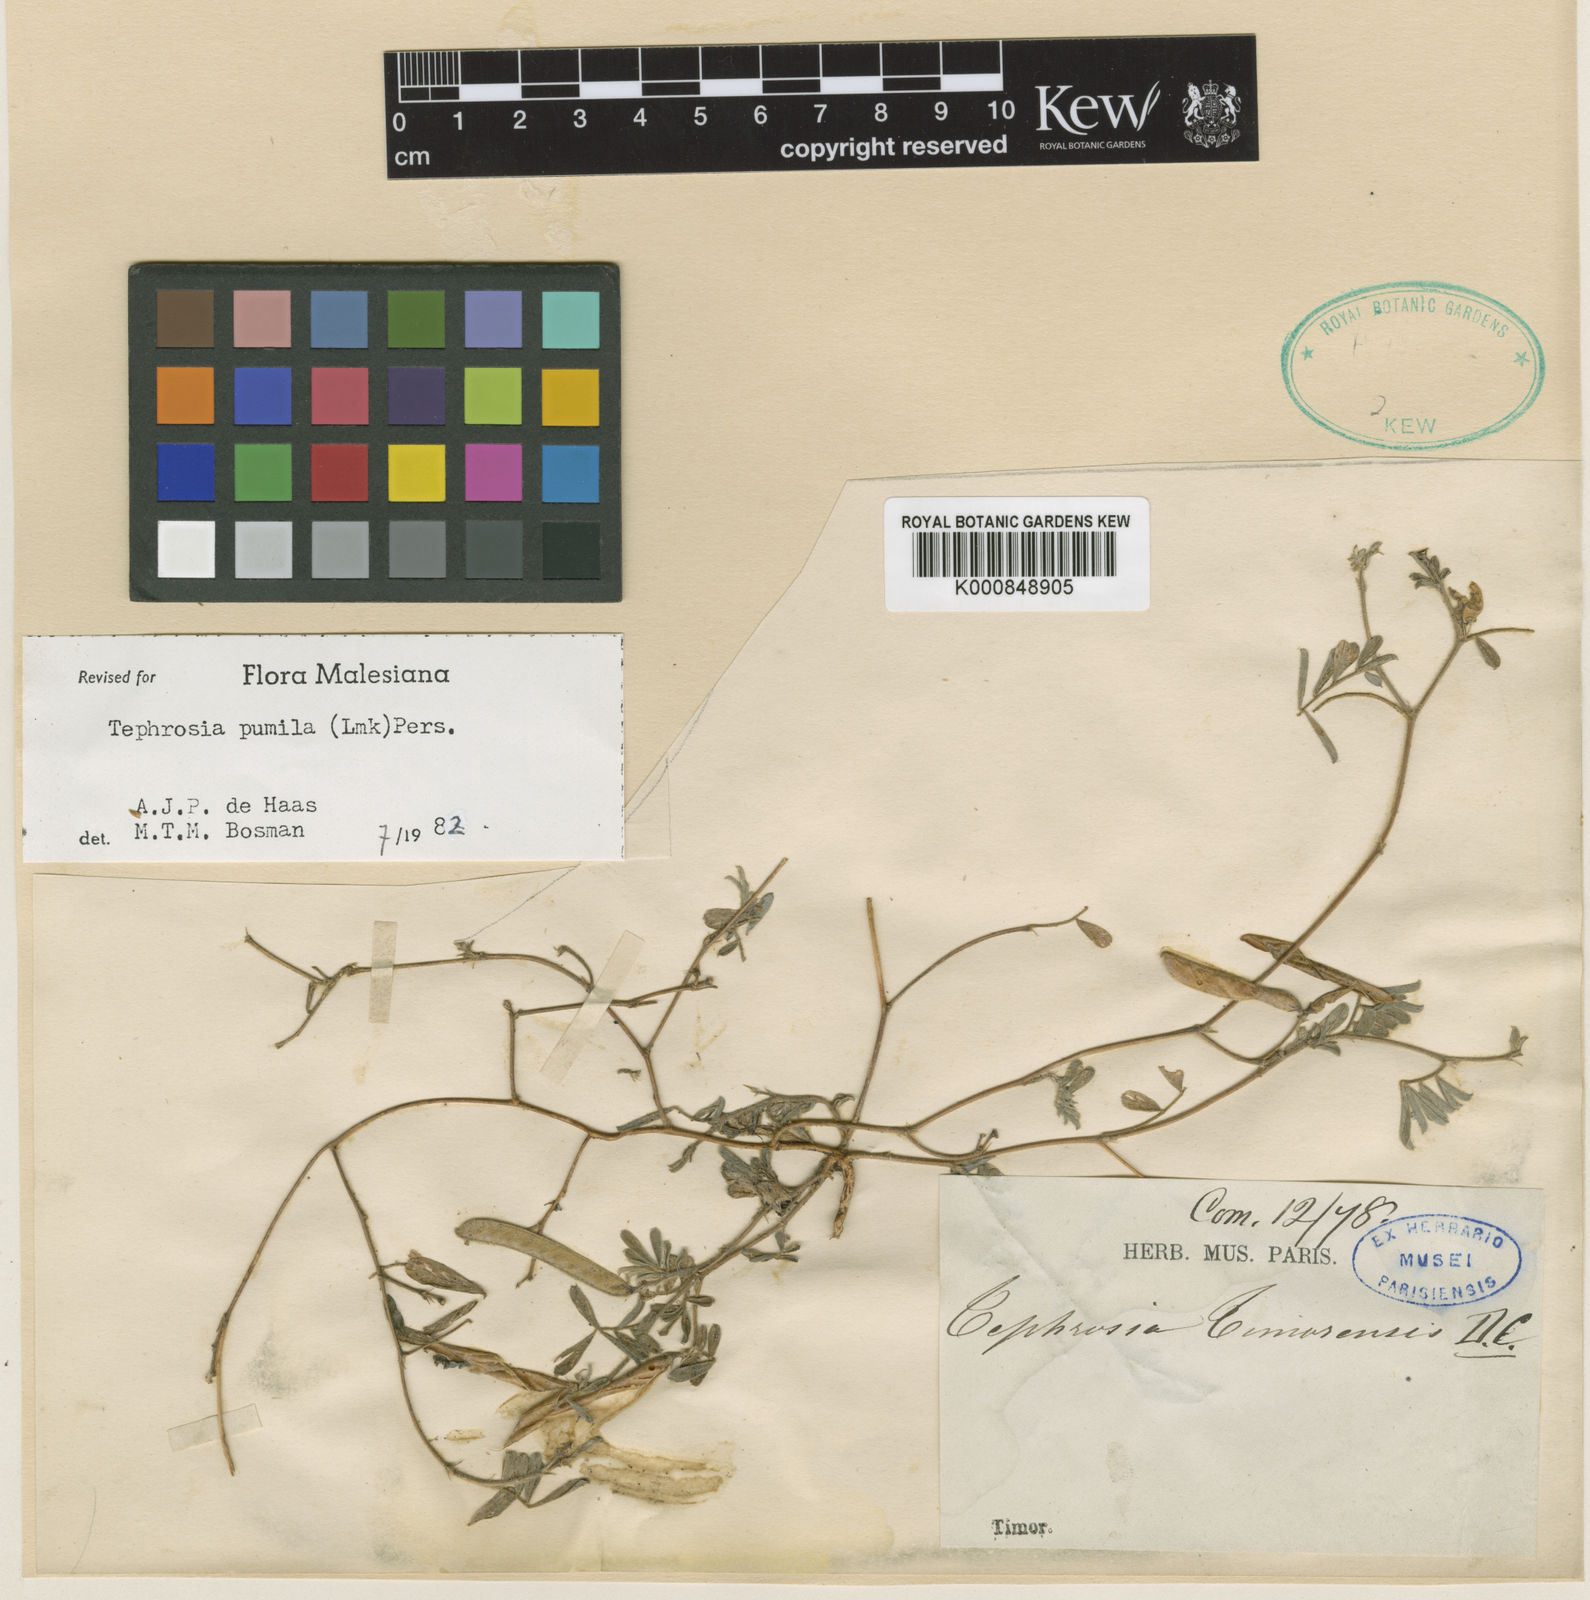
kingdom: Plantae
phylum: Tracheophyta
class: Magnoliopsida
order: Fabales
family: Fabaceae
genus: Tephrosia
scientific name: Tephrosia pumila
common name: Indigo sauvage
